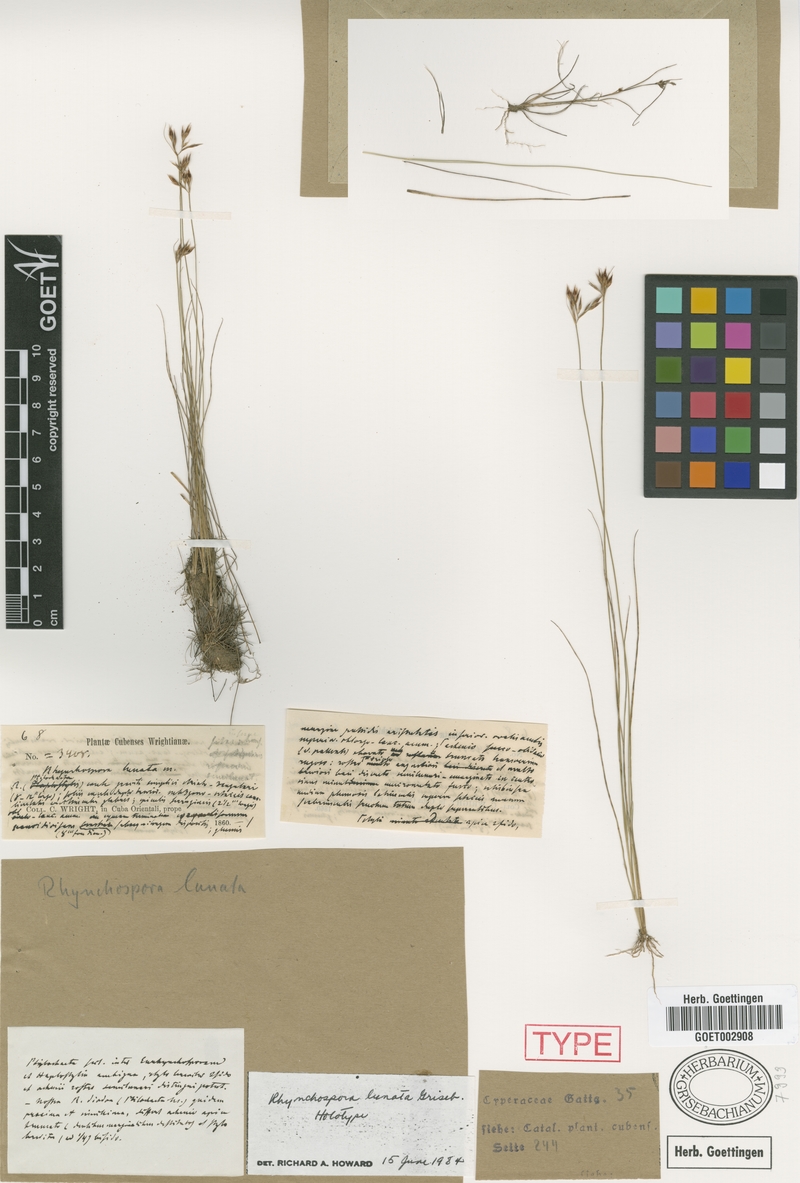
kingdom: Plantae
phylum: Tracheophyta
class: Liliopsida
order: Poales
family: Cyperaceae
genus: Rhynchospora
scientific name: Rhynchospora diodon
